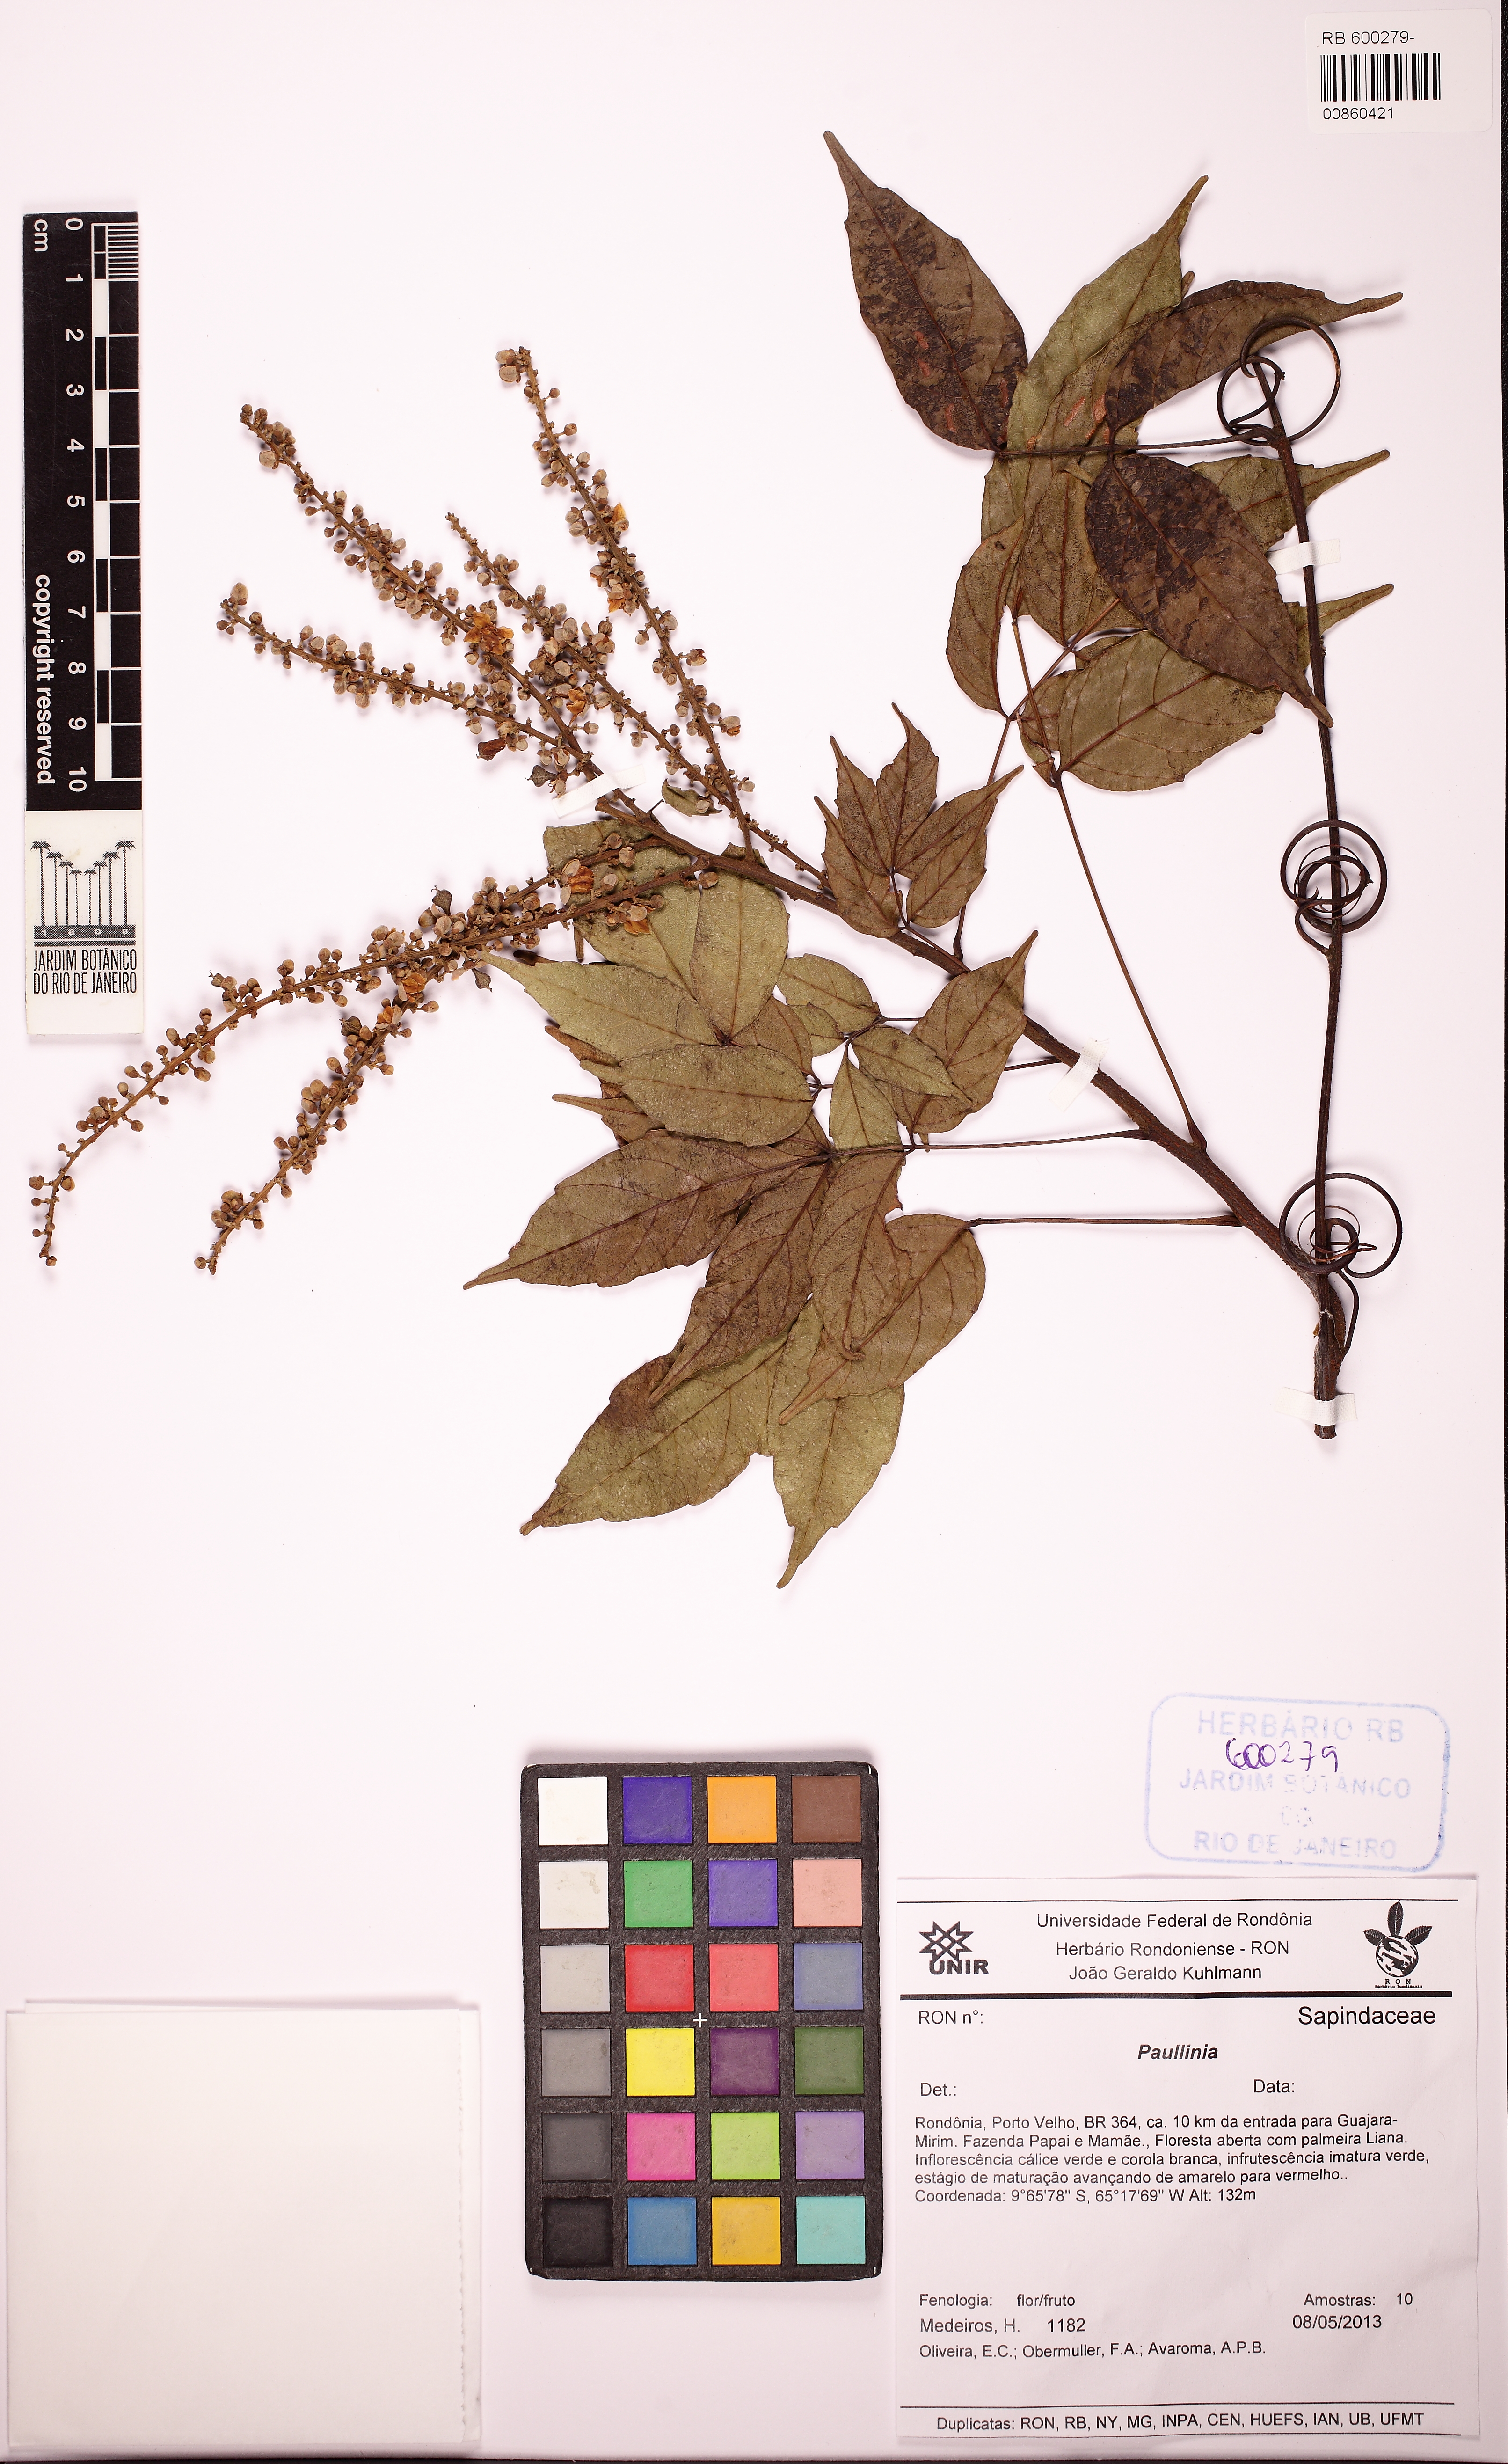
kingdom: Plantae
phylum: Tracheophyta
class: Magnoliopsida
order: Sapindales
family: Sapindaceae
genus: Paullinia
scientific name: Paullinia
